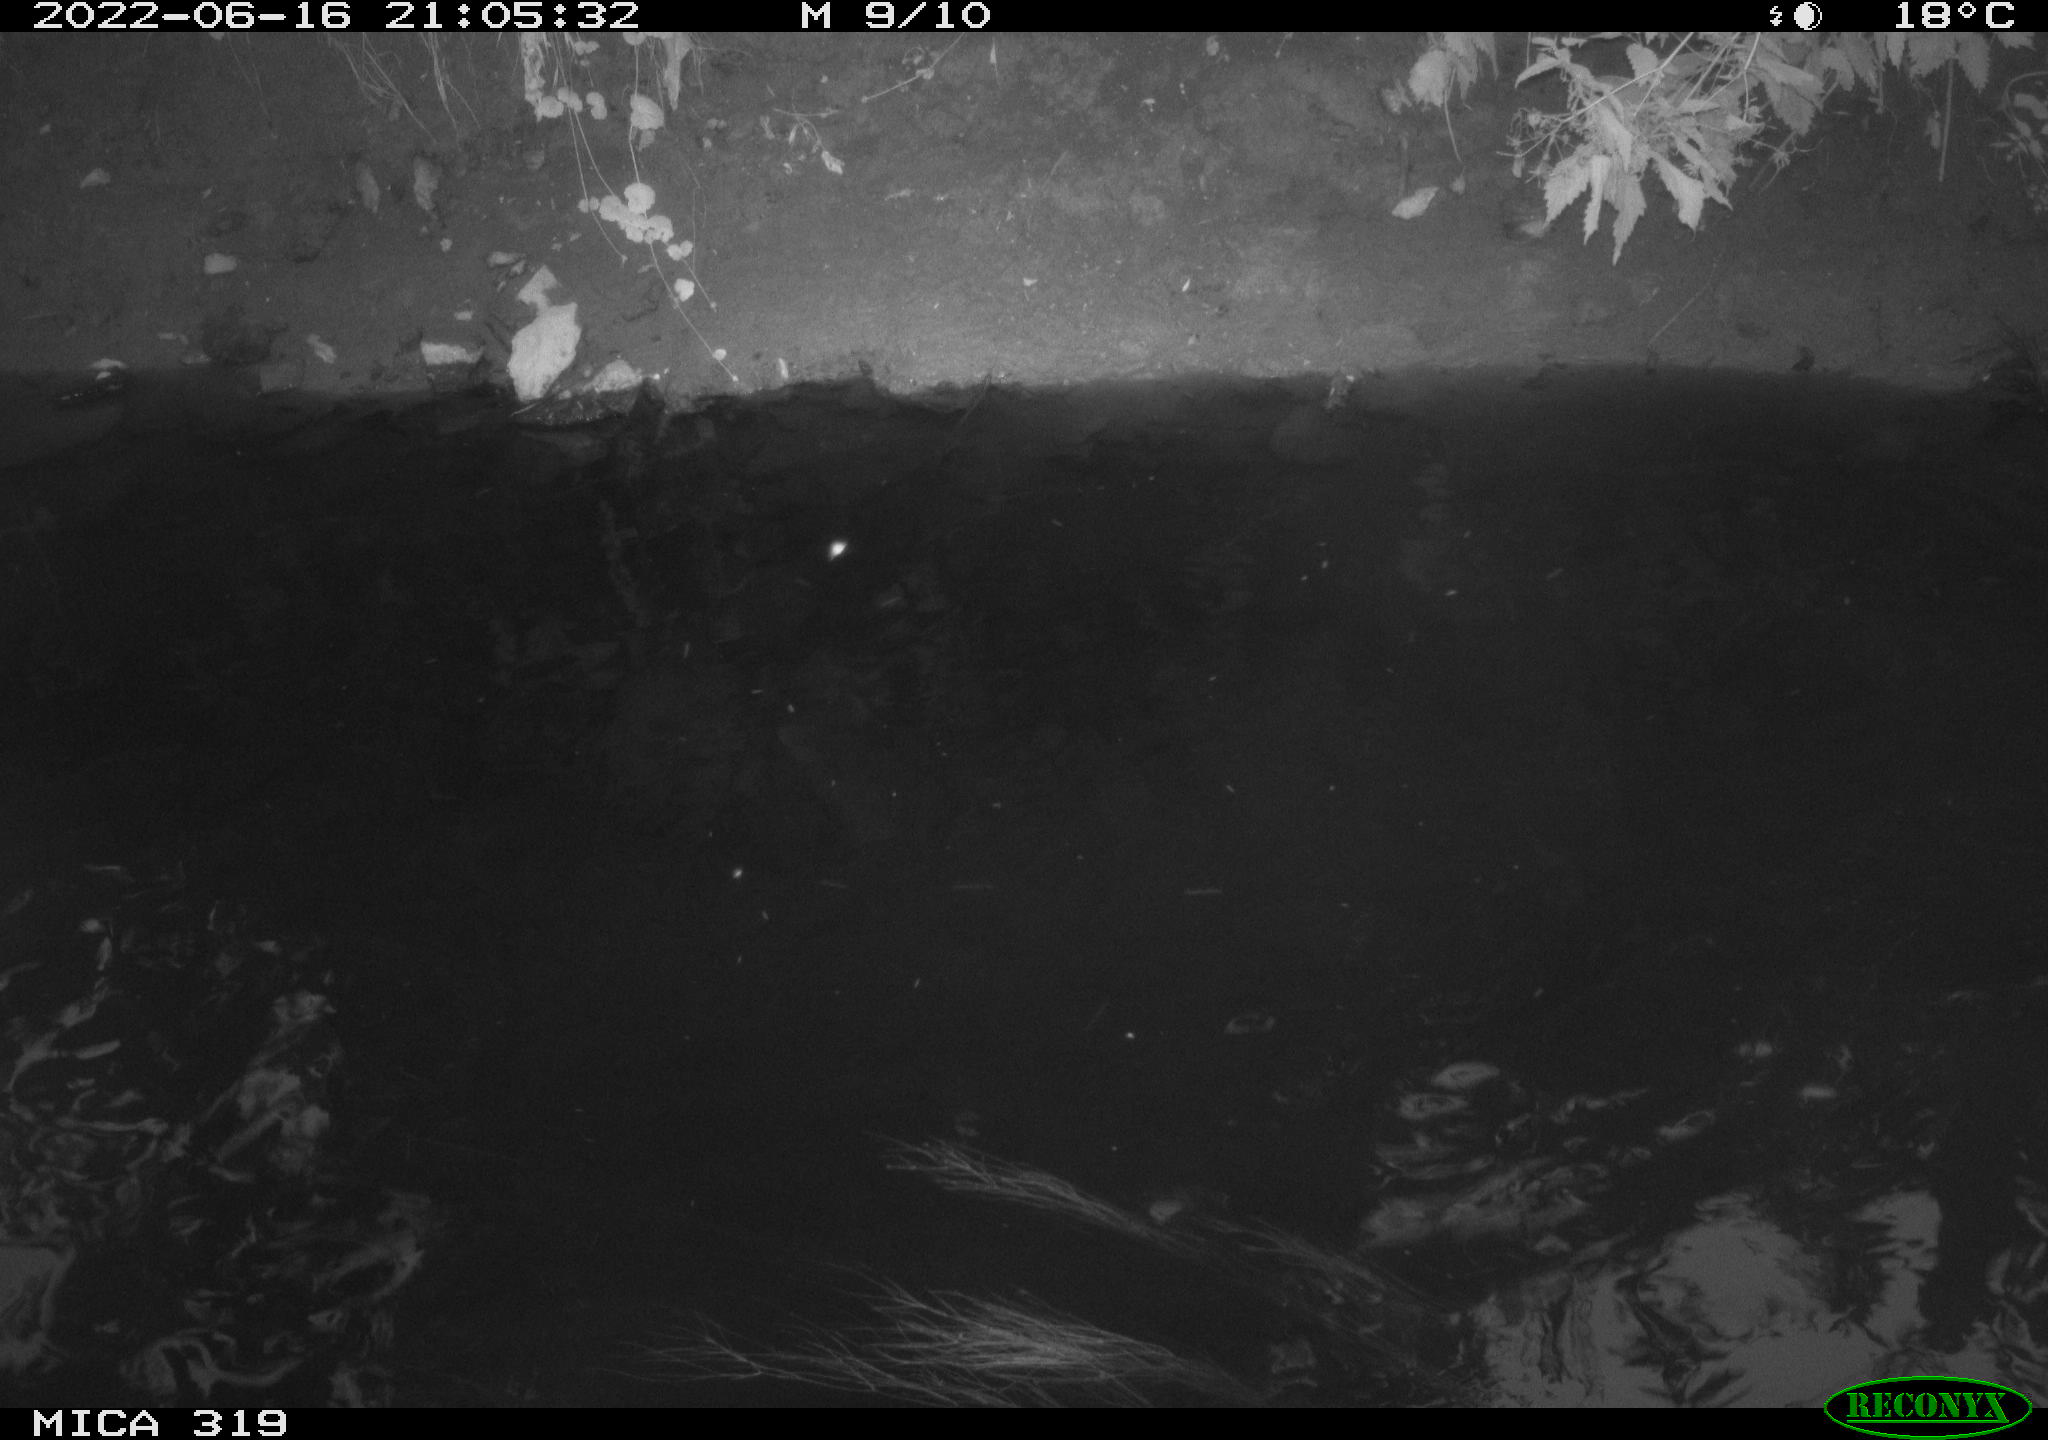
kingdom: Animalia
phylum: Chordata
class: Aves
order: Anseriformes
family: Anatidae
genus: Anas
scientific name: Anas
